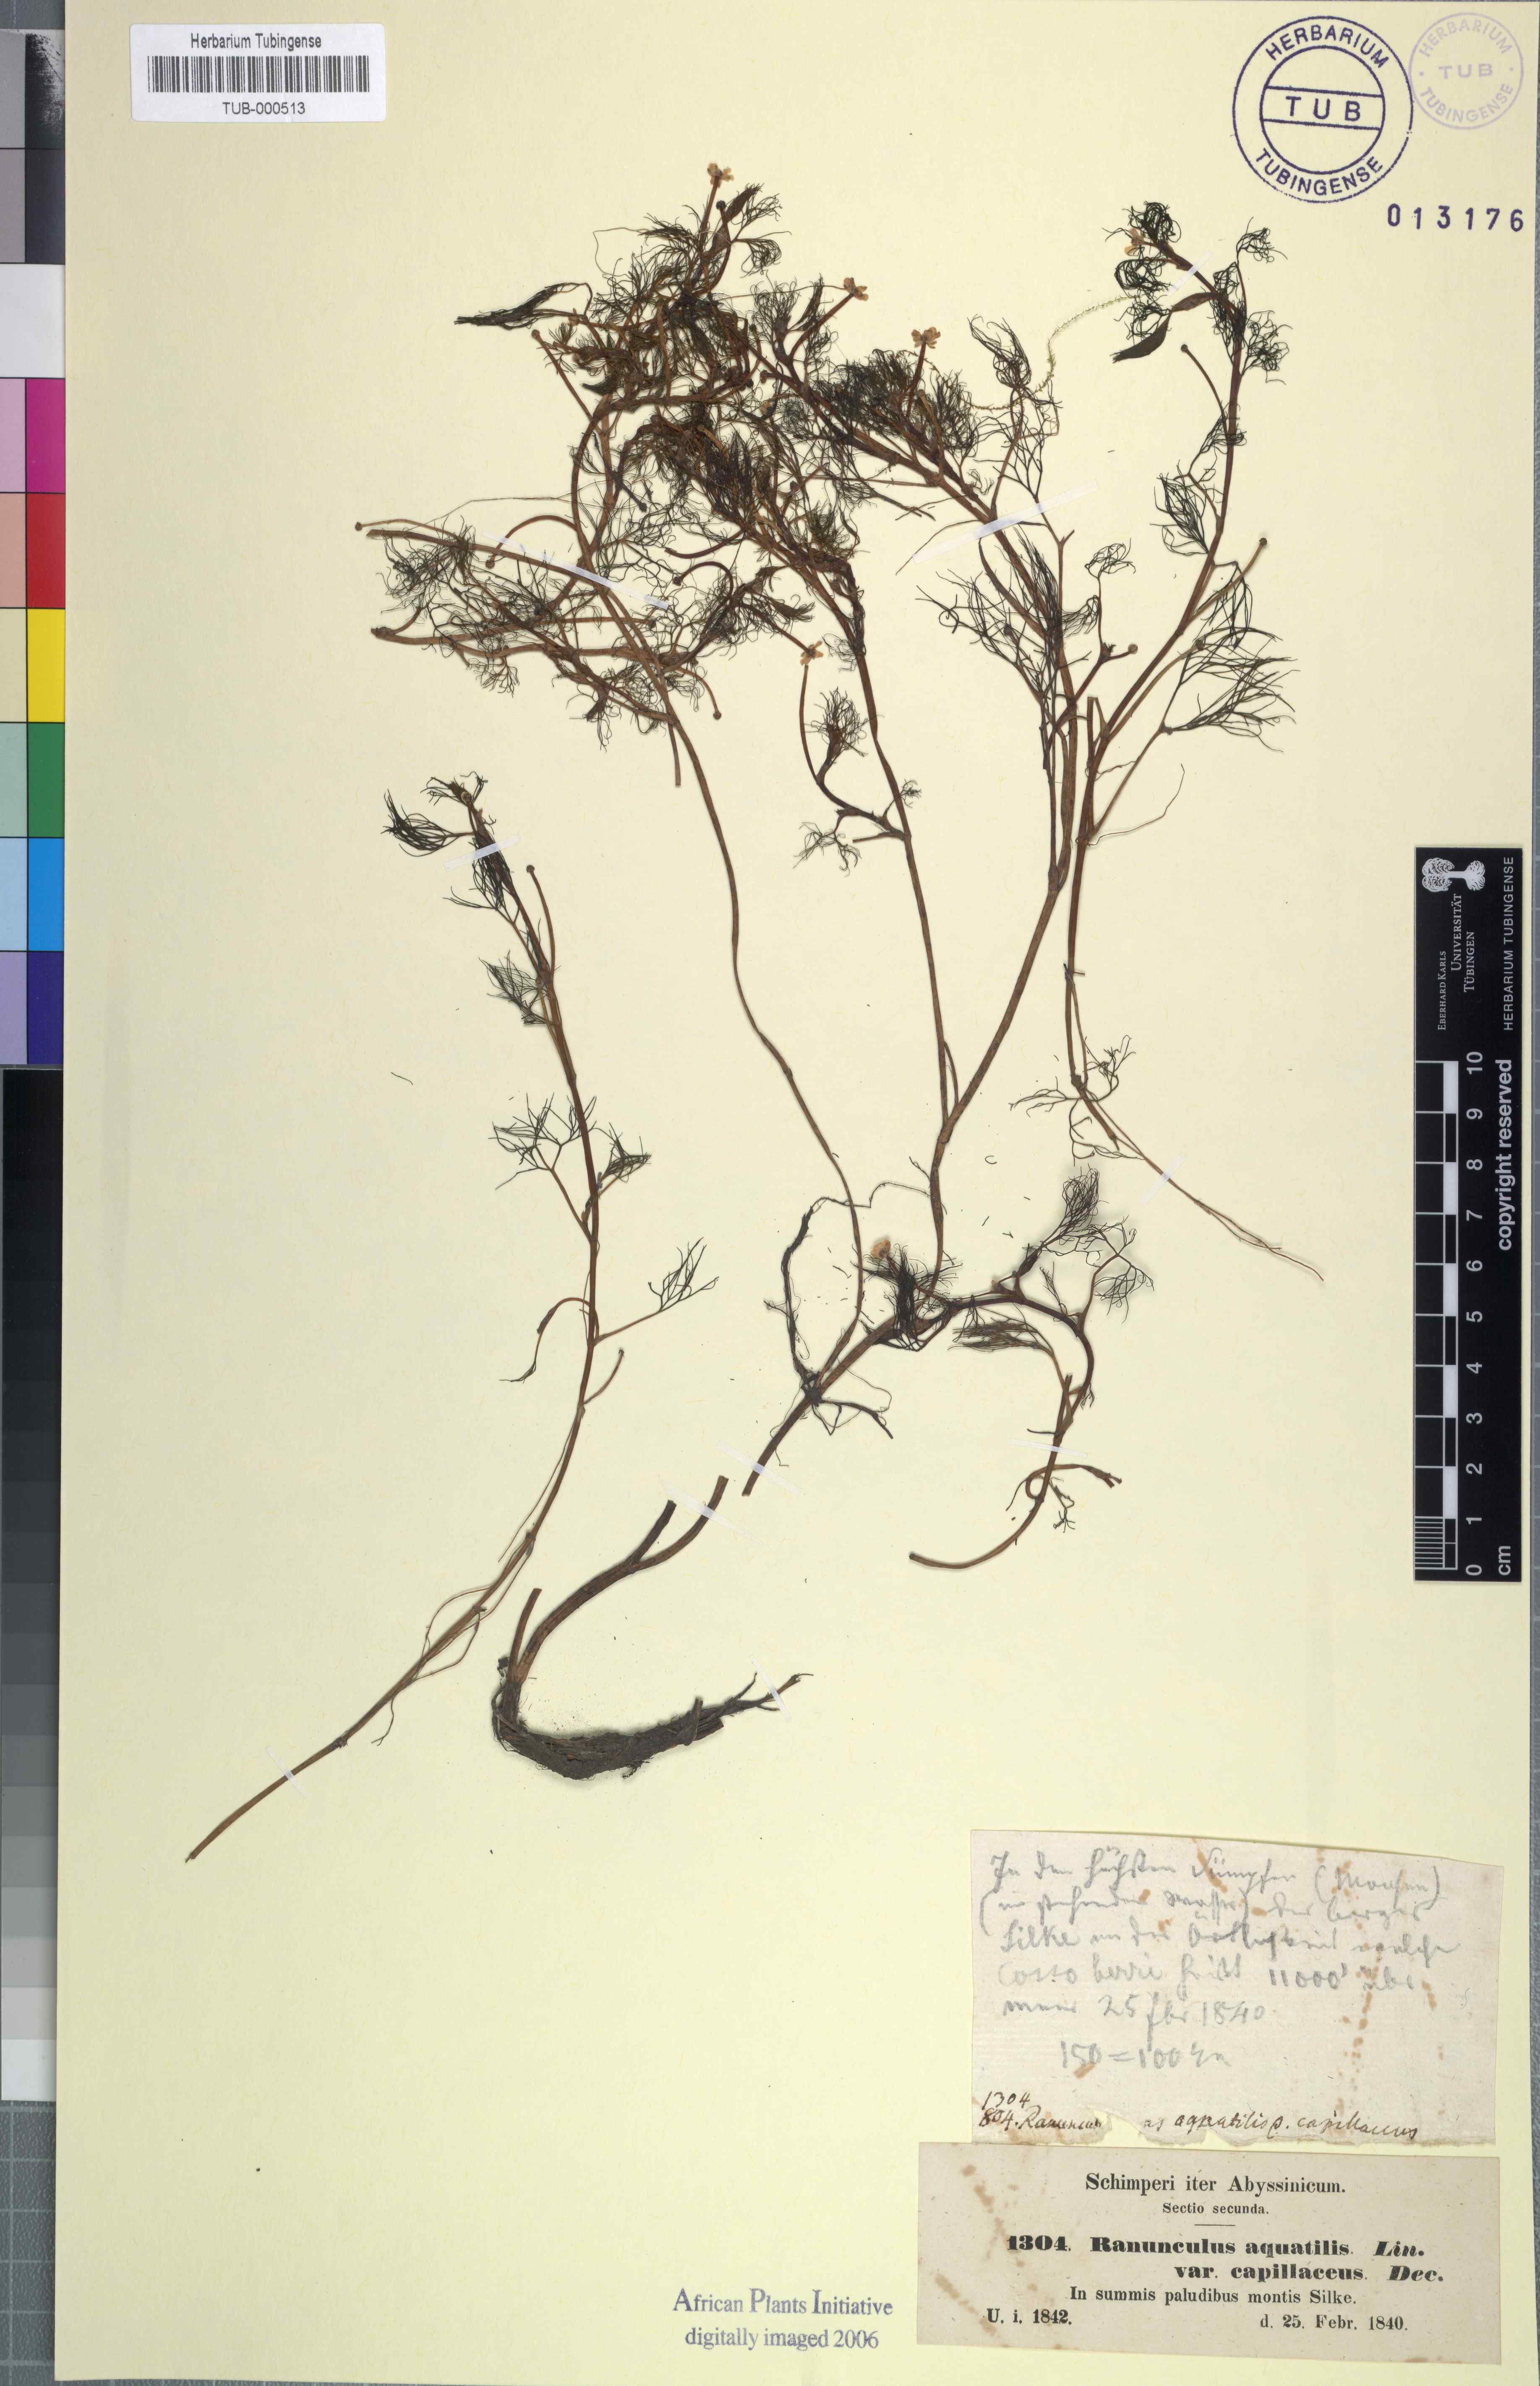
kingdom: Plantae
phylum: Tracheophyta
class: Magnoliopsida
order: Ranunculales
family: Ranunculaceae
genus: Ranunculus
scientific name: Ranunculus aquatilis
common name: Common water-crowfoot
